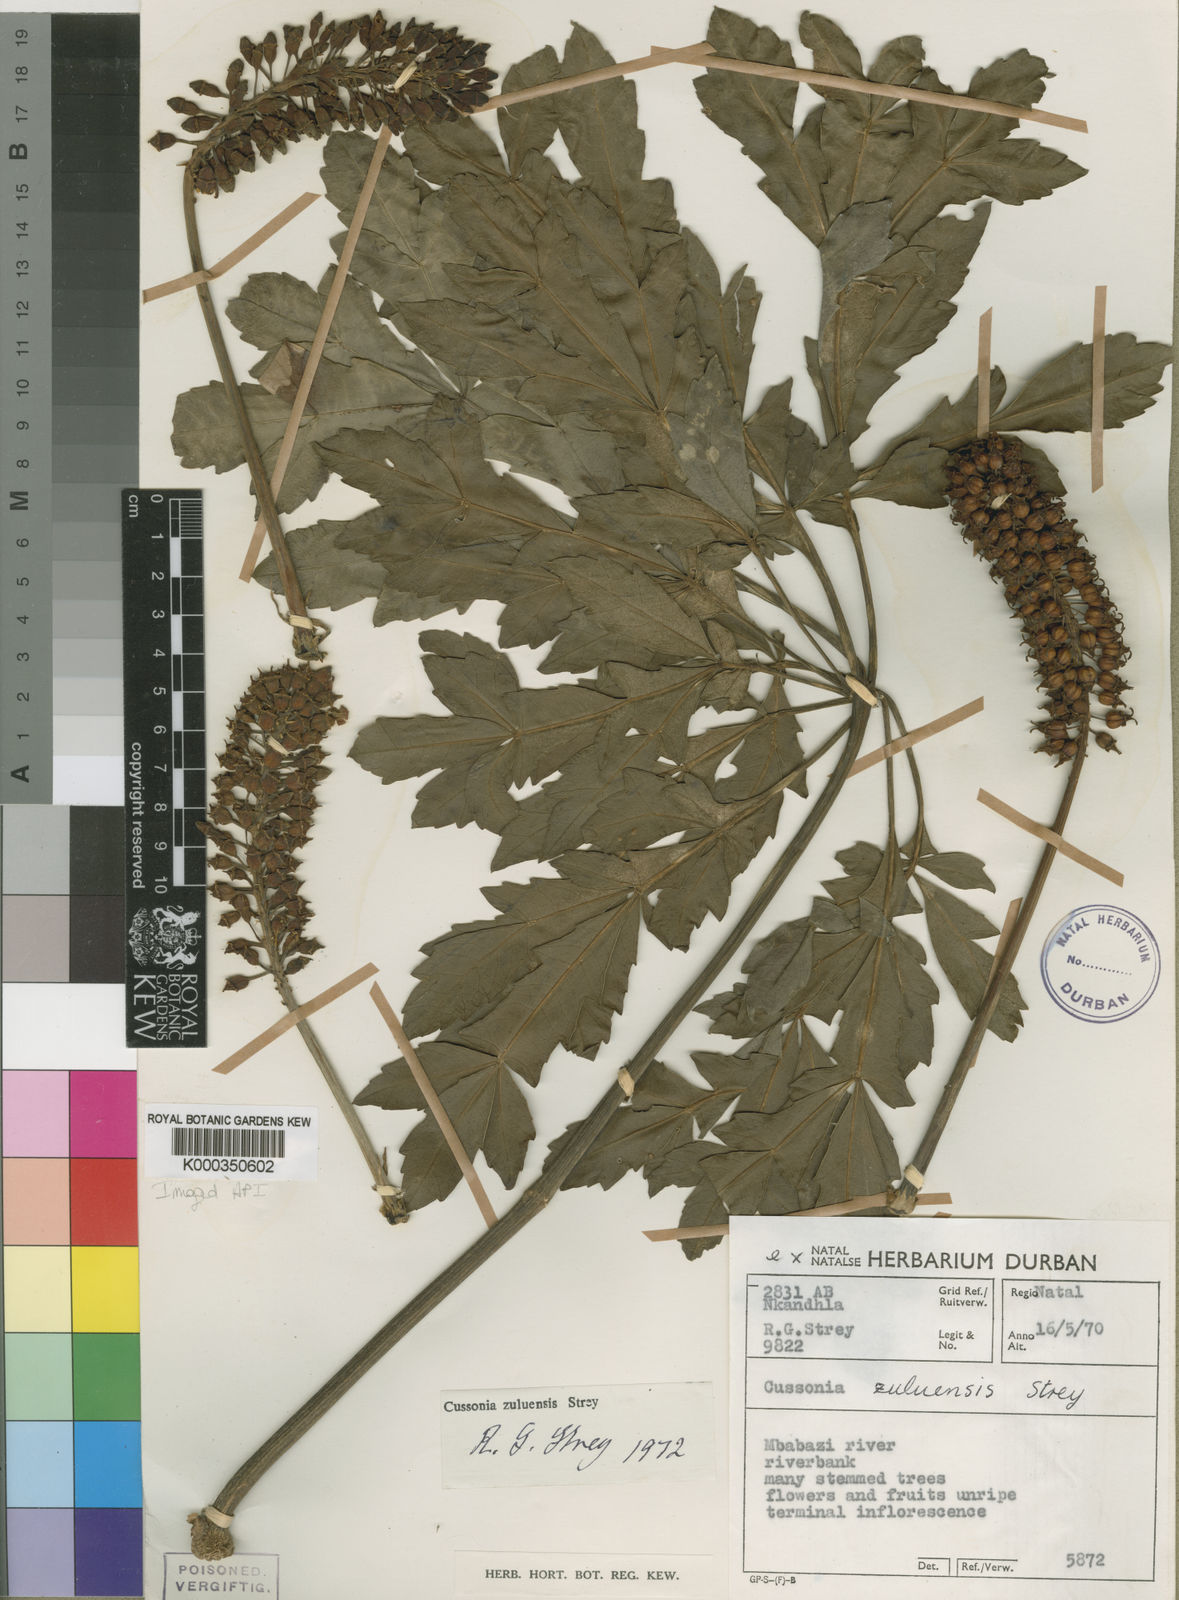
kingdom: Plantae
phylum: Tracheophyta
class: Magnoliopsida
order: Apiales
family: Araliaceae
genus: Cussonia
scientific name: Cussonia zuluensis
